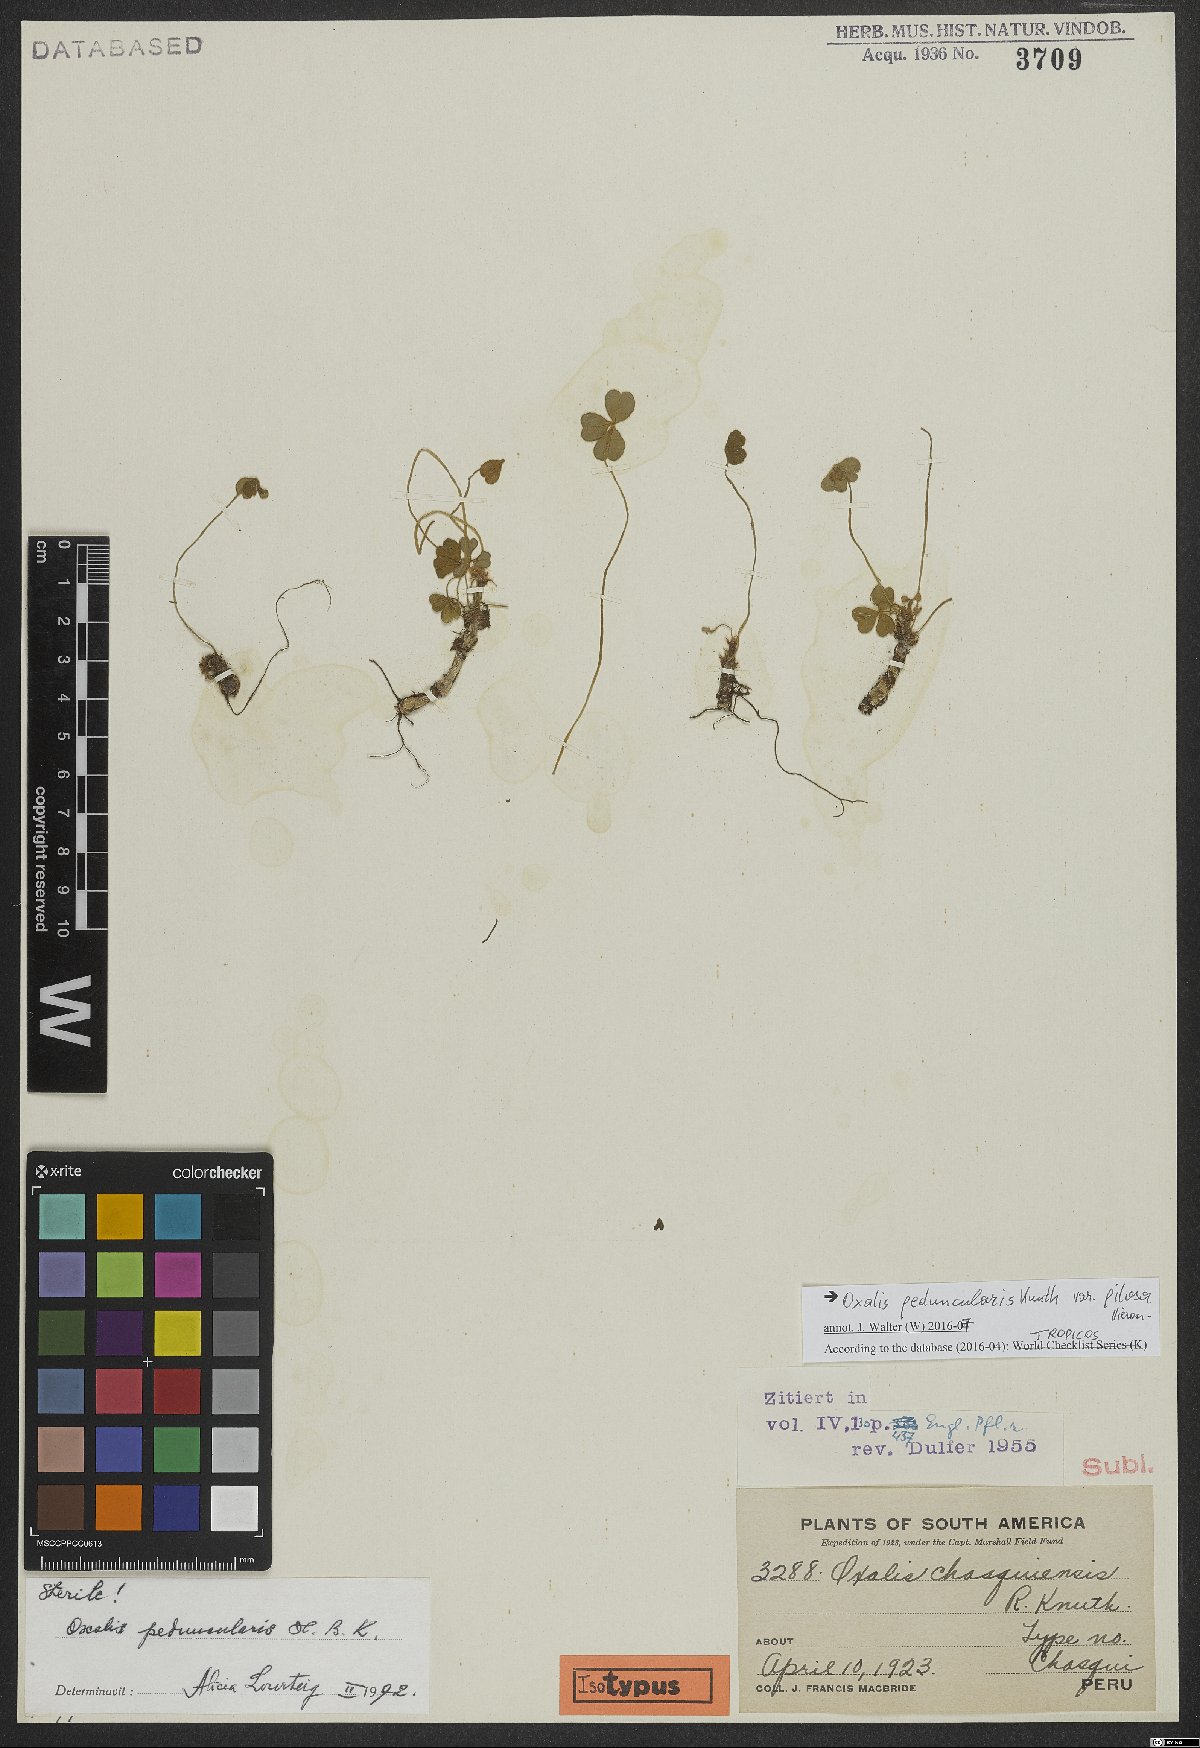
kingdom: Plantae
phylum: Tracheophyta
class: Magnoliopsida
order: Oxalidales
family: Oxalidaceae
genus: Oxalis
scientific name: Oxalis peduncularis
